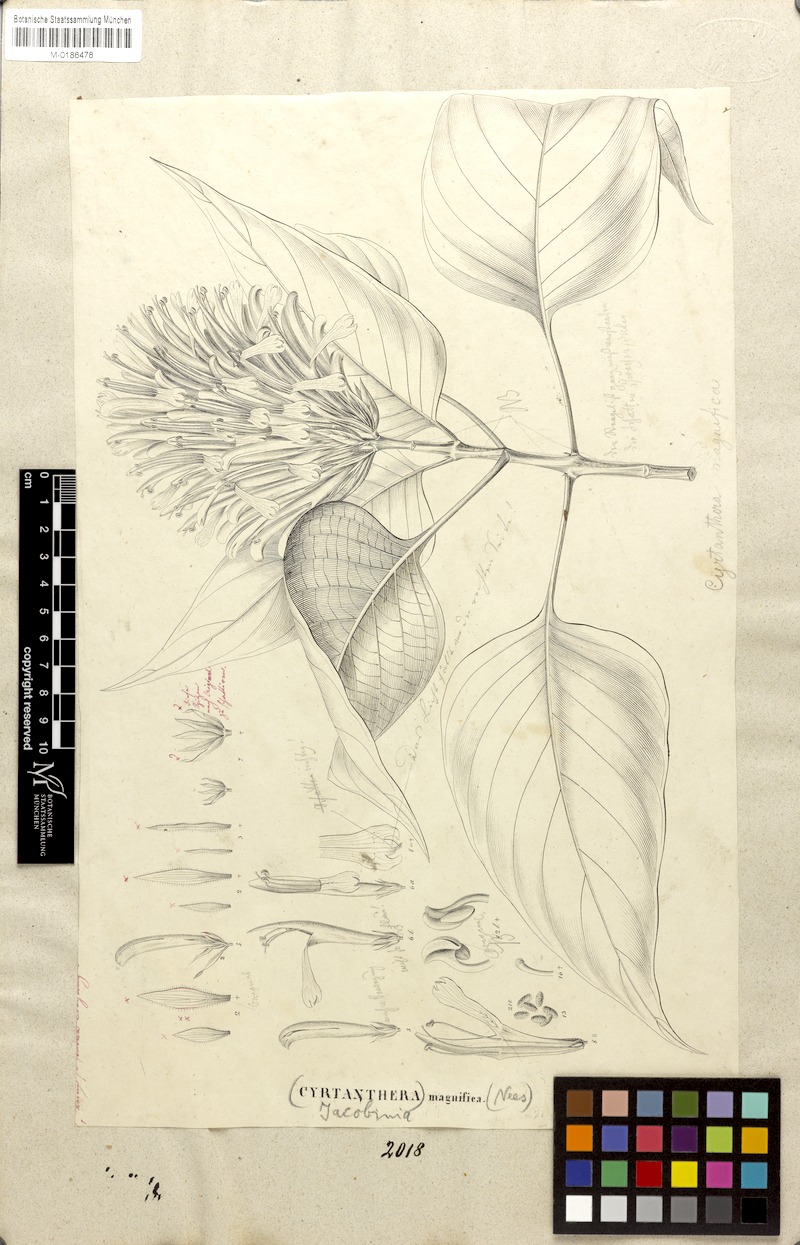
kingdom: Plantae
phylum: Tracheophyta
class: Magnoliopsida
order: Lamiales
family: Acanthaceae
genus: Justicia
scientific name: Justicia carnea
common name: Brazilian-plume
